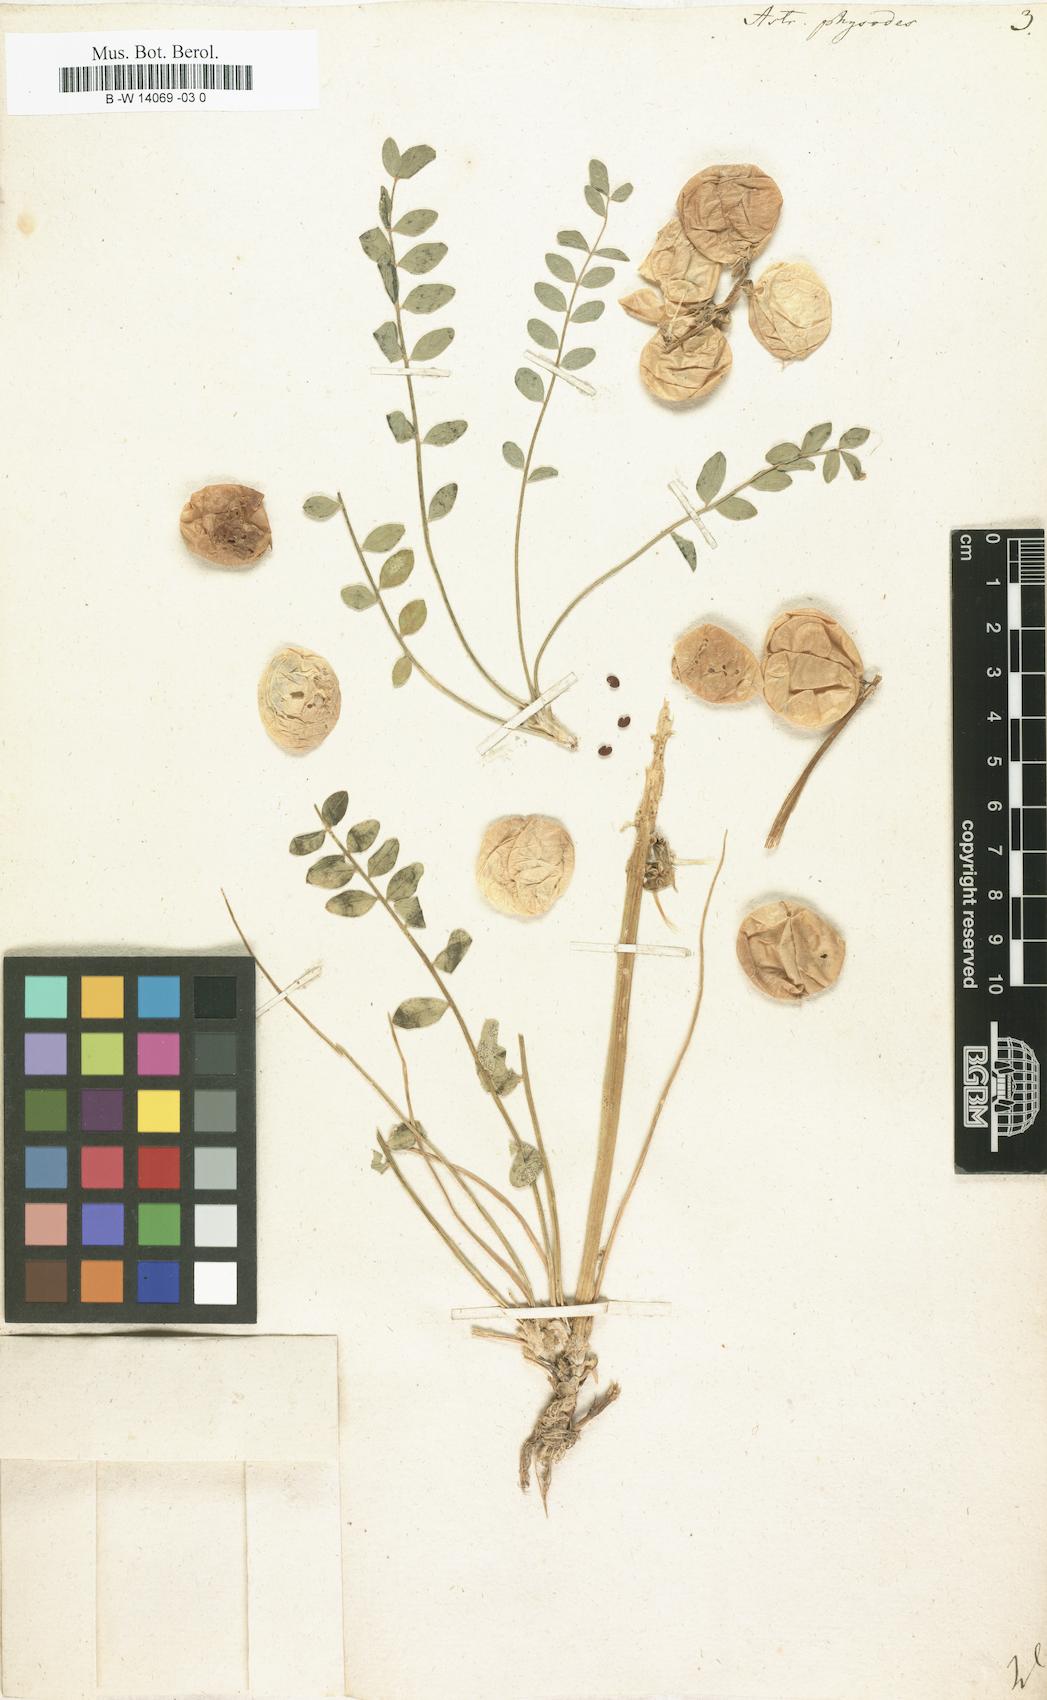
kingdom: Plantae
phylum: Tracheophyta
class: Magnoliopsida
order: Fabales
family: Fabaceae
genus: Astragalus
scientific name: Astragalus physodes
